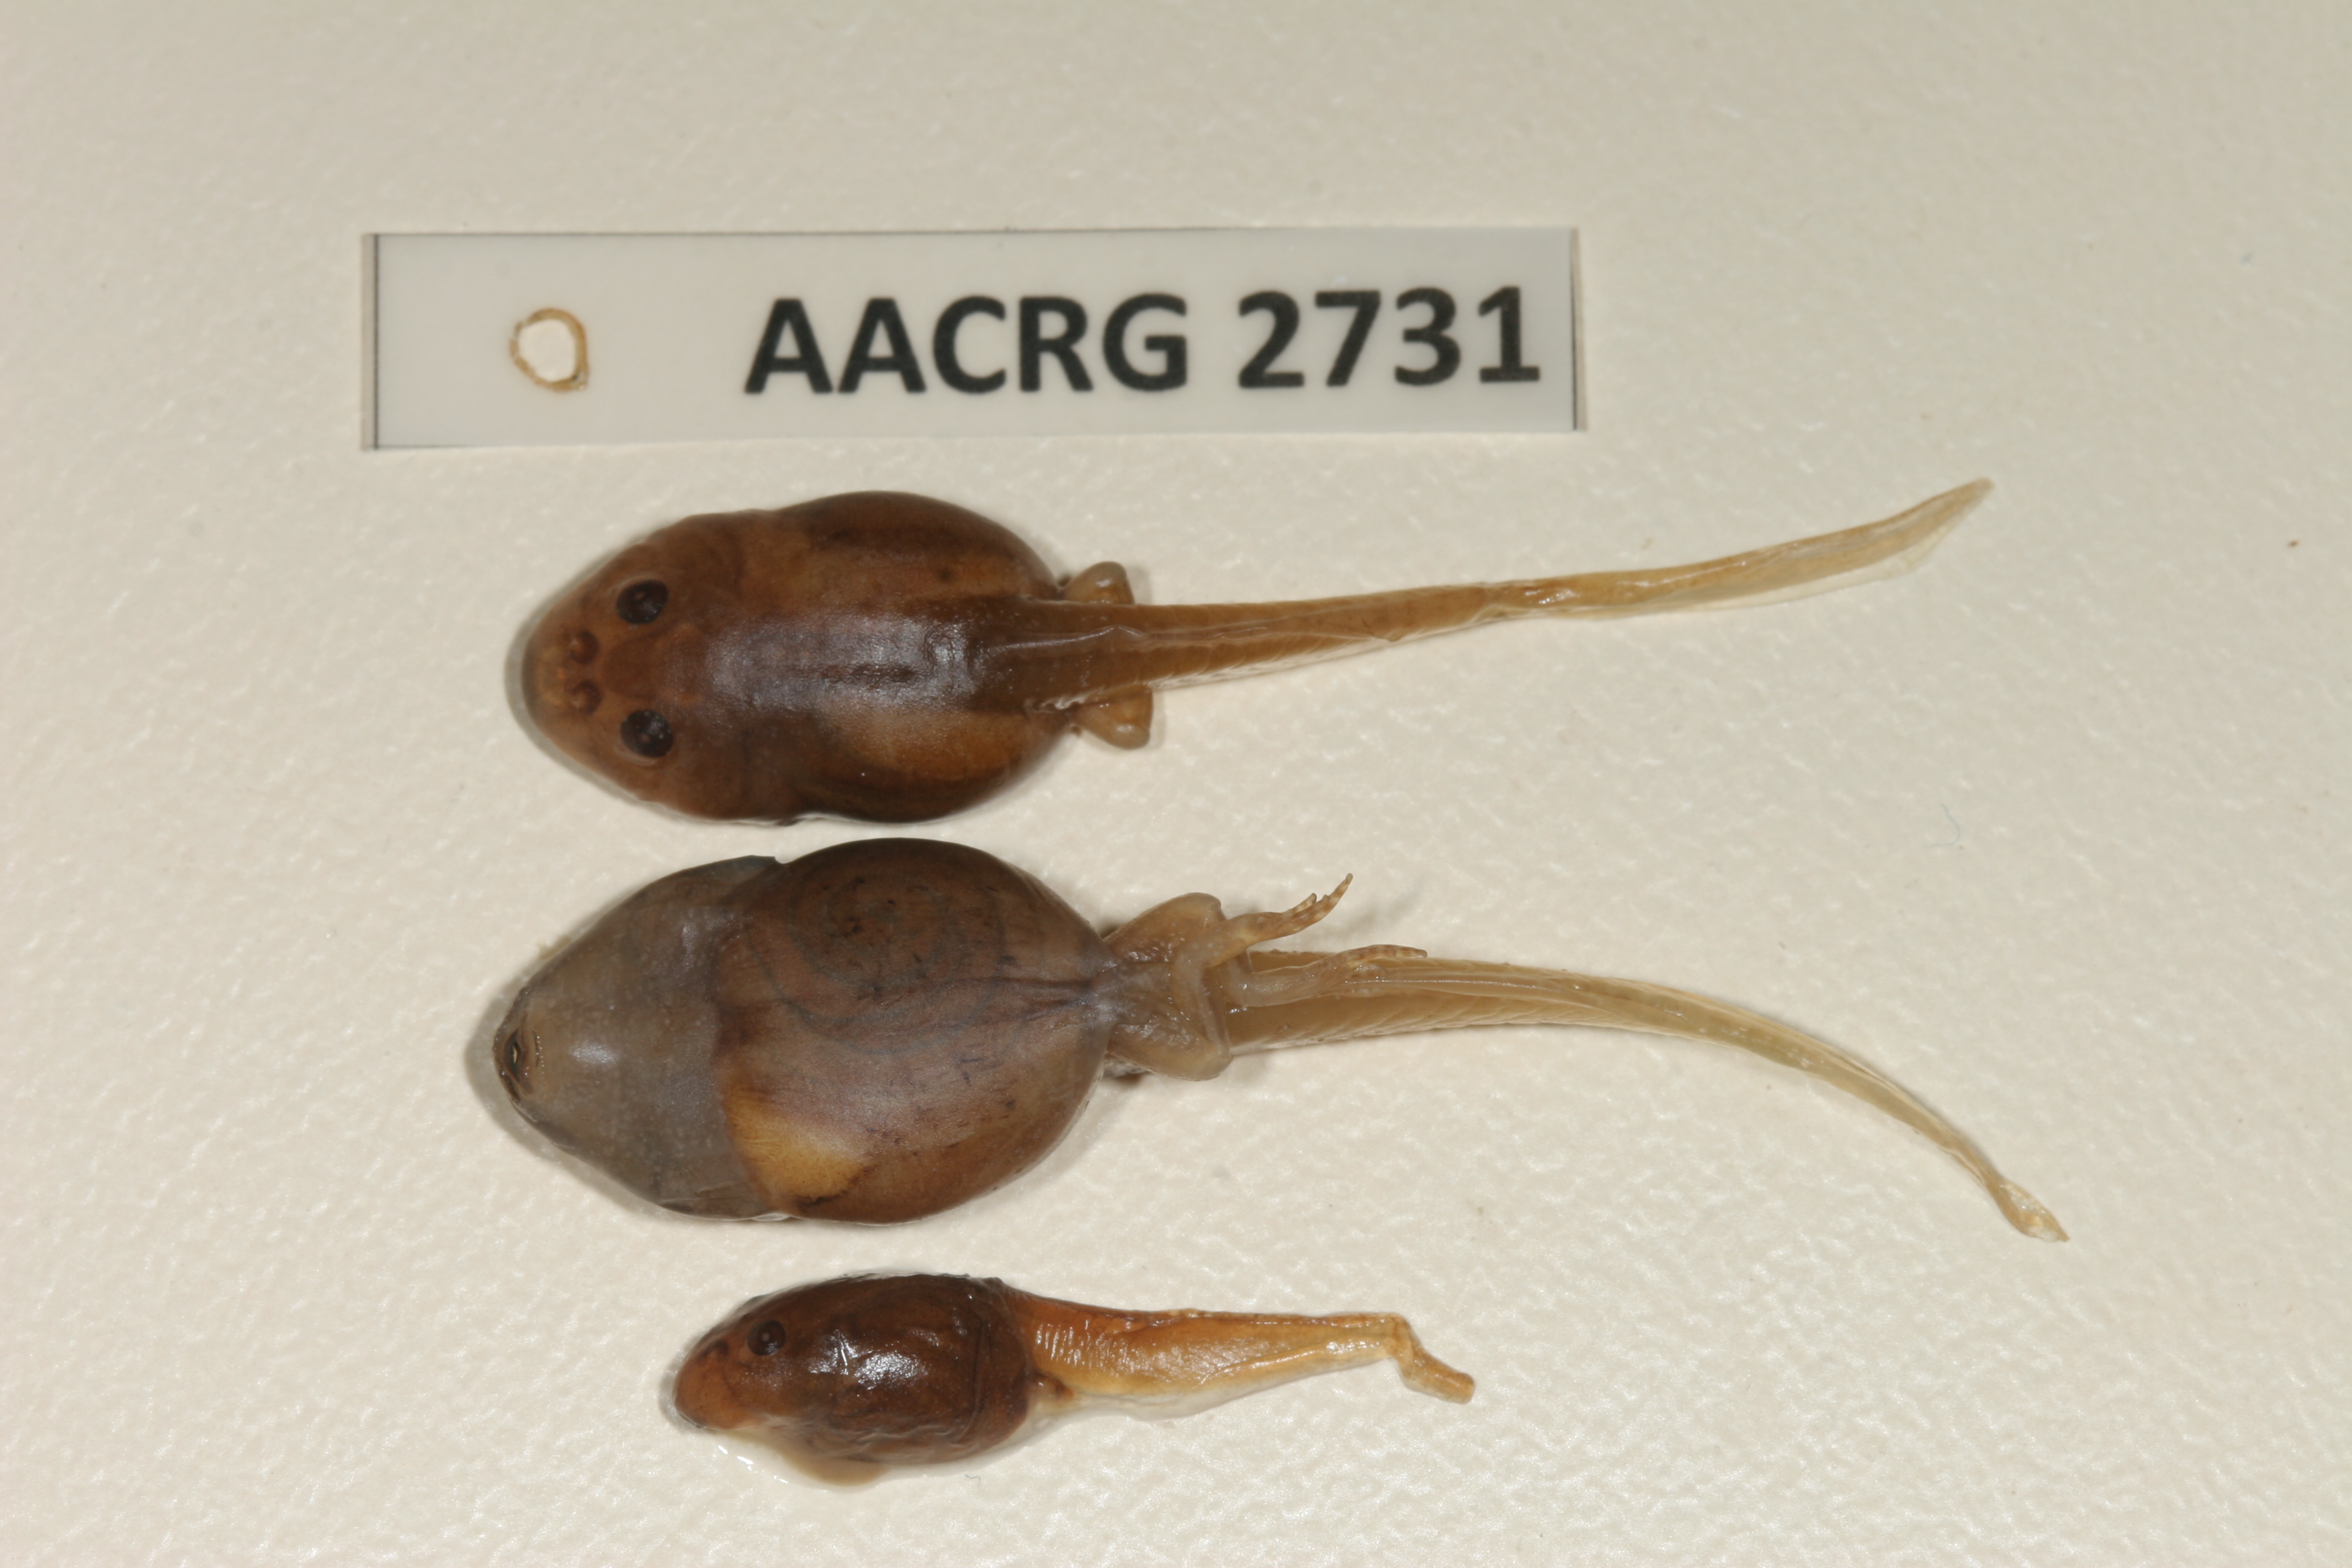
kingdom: Animalia
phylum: Chordata
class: Amphibia
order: Anura
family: Pyxicephalidae
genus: Tomopterna
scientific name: Tomopterna delalandii
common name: Delalande's burrowing bullfrog
